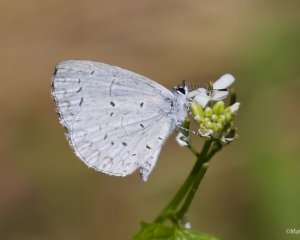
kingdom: Animalia
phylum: Arthropoda
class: Insecta
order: Lepidoptera
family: Lycaenidae
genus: Celastrina
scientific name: Celastrina neglectamajor
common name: Appalachian Azure
